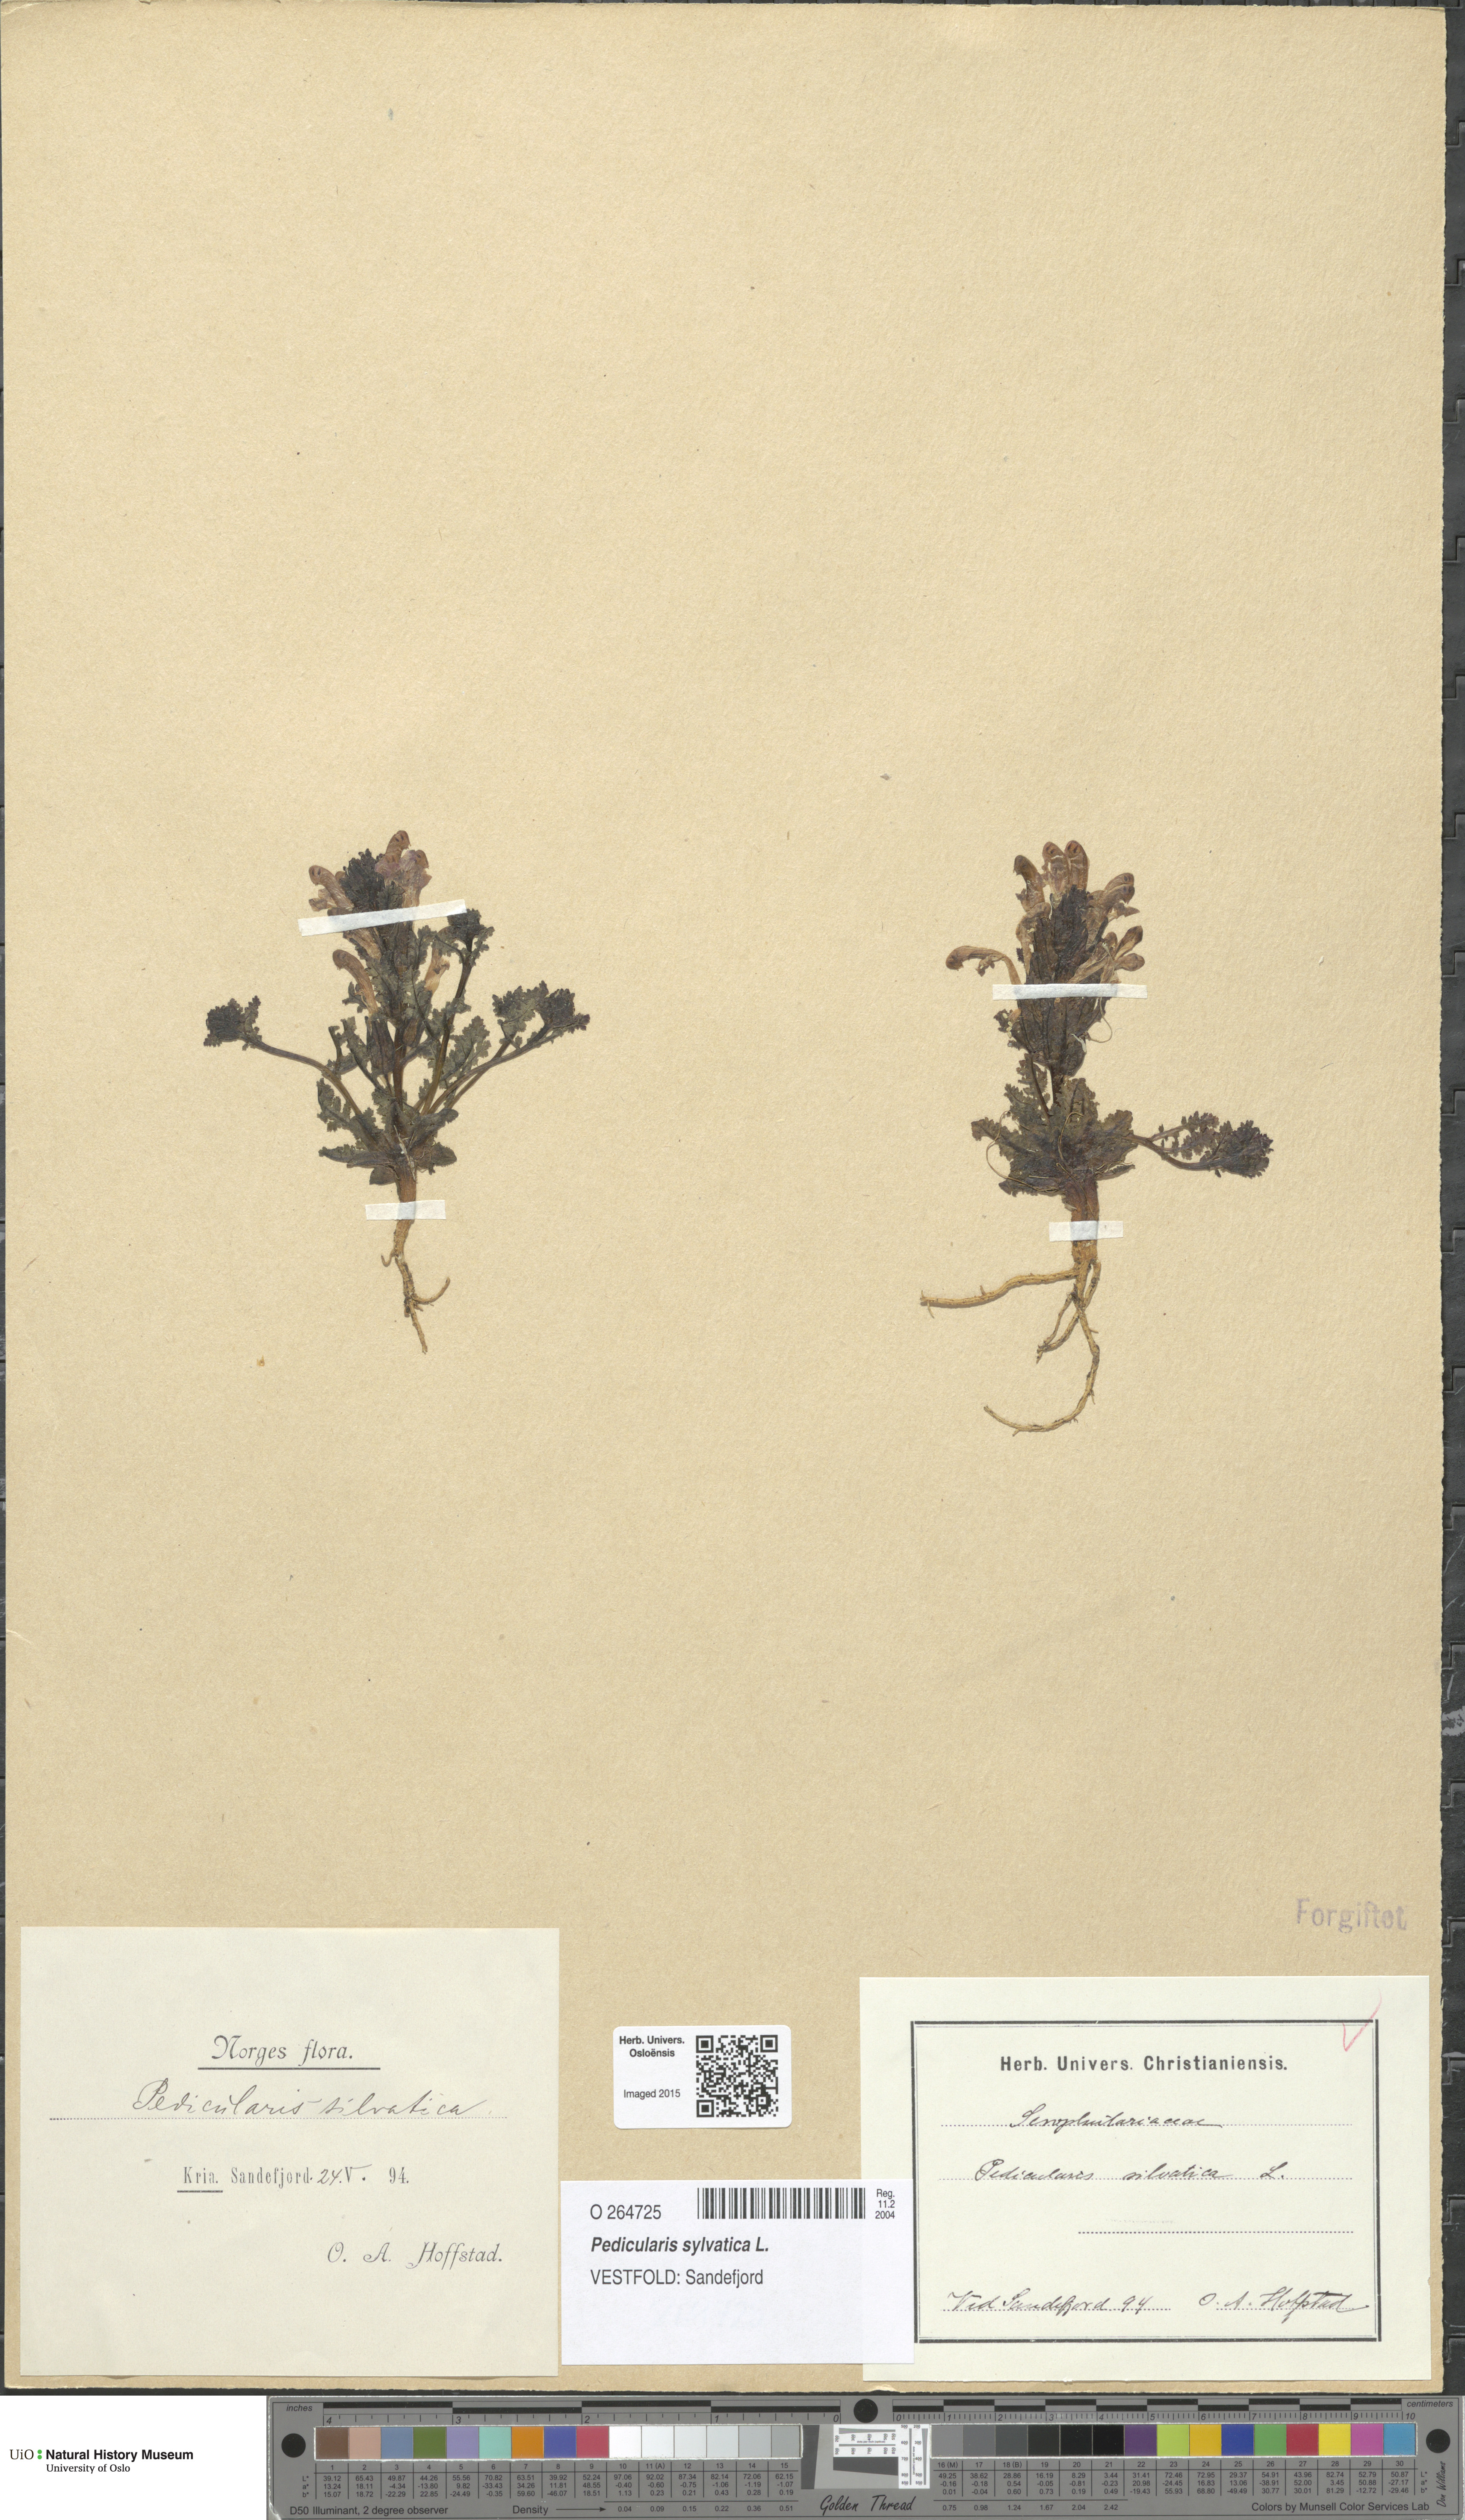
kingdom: Plantae
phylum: Tracheophyta
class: Magnoliopsida
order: Lamiales
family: Orobanchaceae
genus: Pedicularis
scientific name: Pedicularis sylvatica
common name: Lousewort
